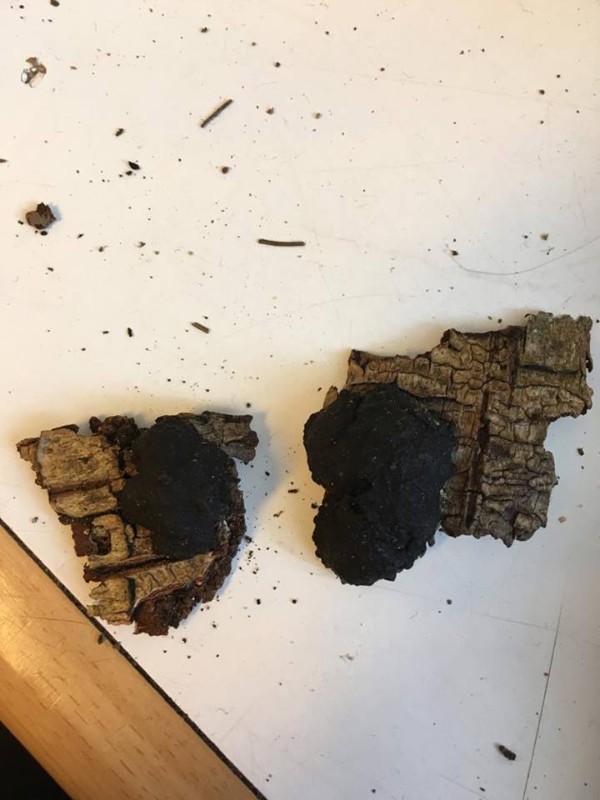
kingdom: Fungi
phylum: Ascomycota
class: Sordariomycetes
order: Xylariales
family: Hypoxylaceae
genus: Jackrogersella
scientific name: Jackrogersella multiformis
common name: foranderlig kulbær
